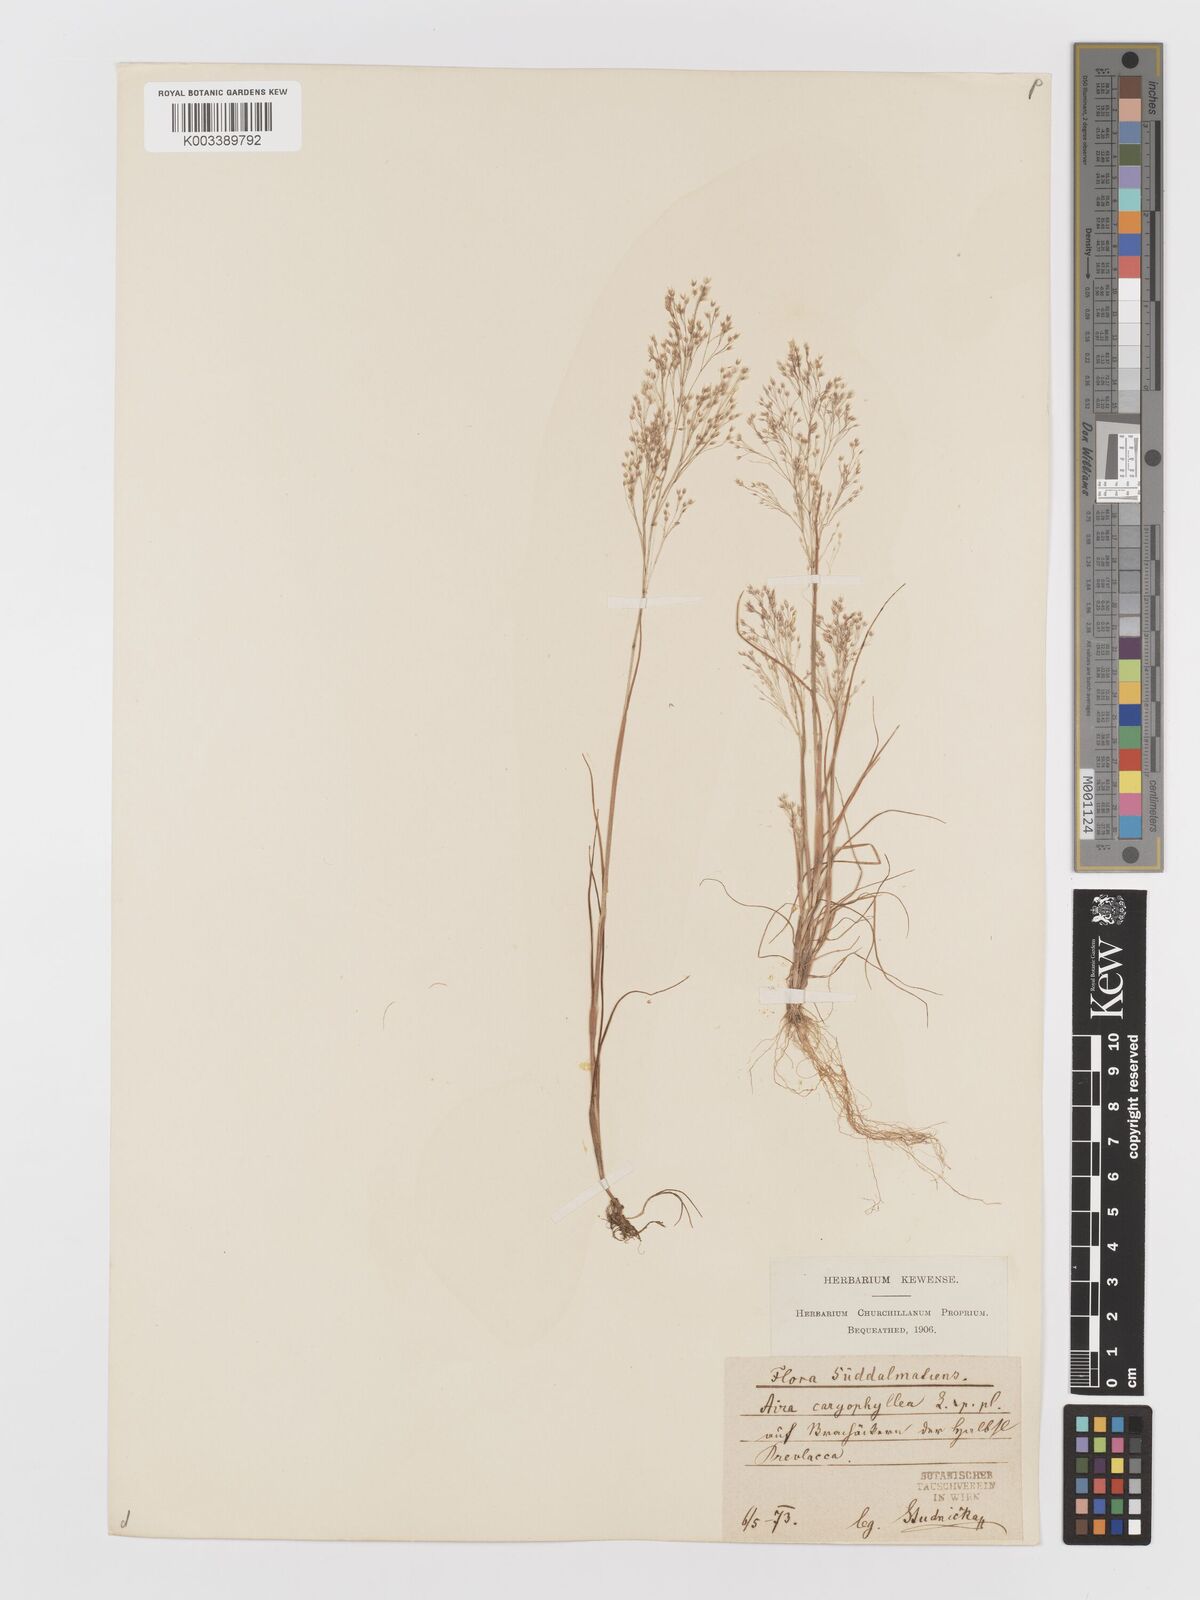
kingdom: Plantae
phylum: Tracheophyta
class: Liliopsida
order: Poales
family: Poaceae
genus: Aira
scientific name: Aira elegans
